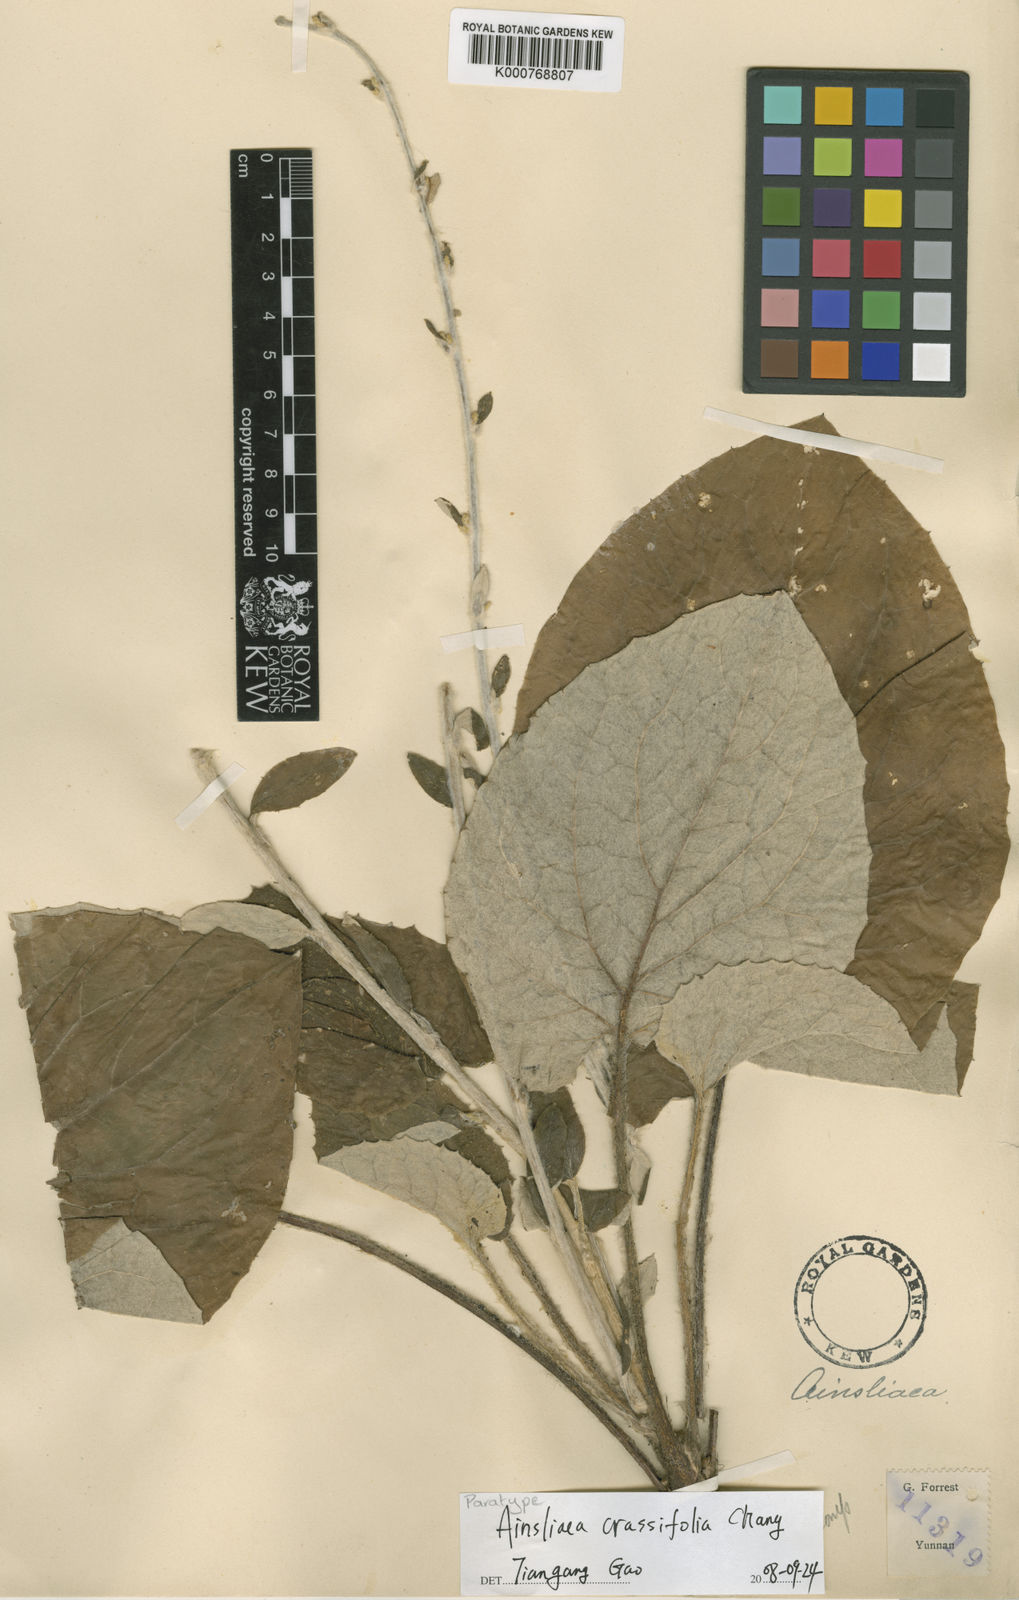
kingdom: Plantae
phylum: Tracheophyta
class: Magnoliopsida
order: Asterales
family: Asteraceae
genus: Ainsliaea
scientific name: Ainsliaea crassifolia
